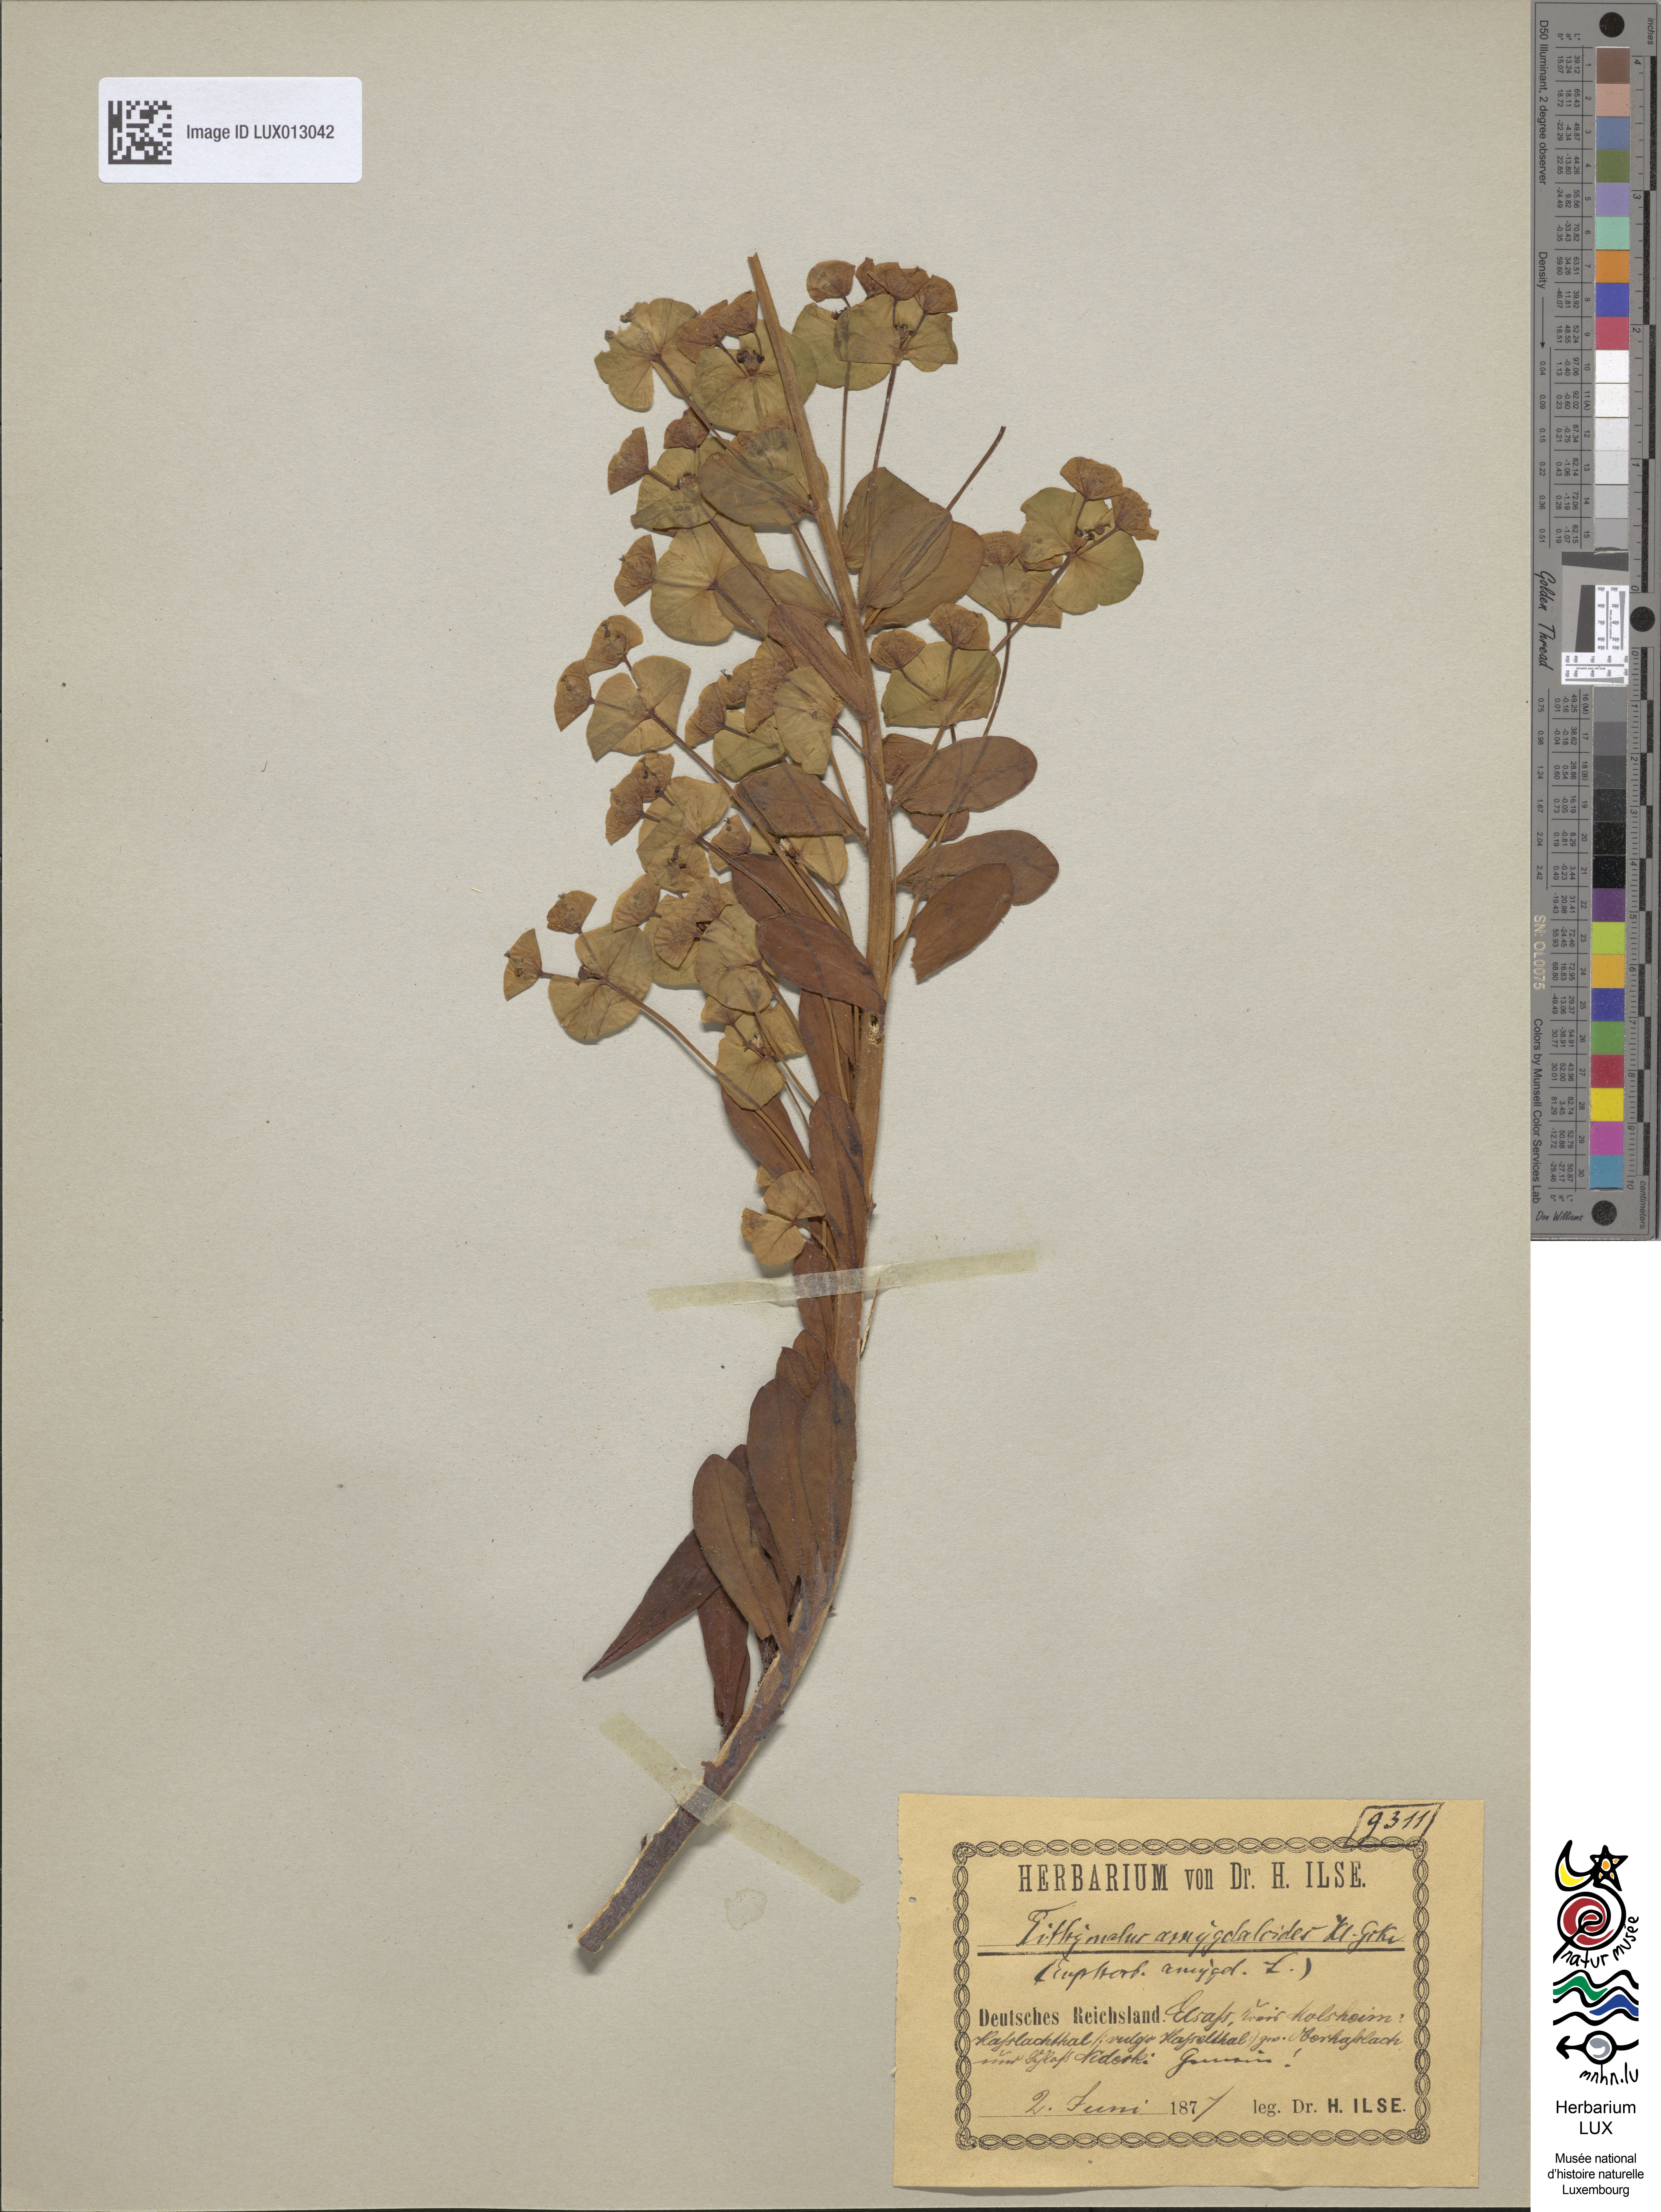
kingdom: Plantae
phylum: Tracheophyta
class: Magnoliopsida
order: Malpighiales
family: Euphorbiaceae
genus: Euphorbia
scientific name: Euphorbia amygdaloides
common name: Wood spurge
